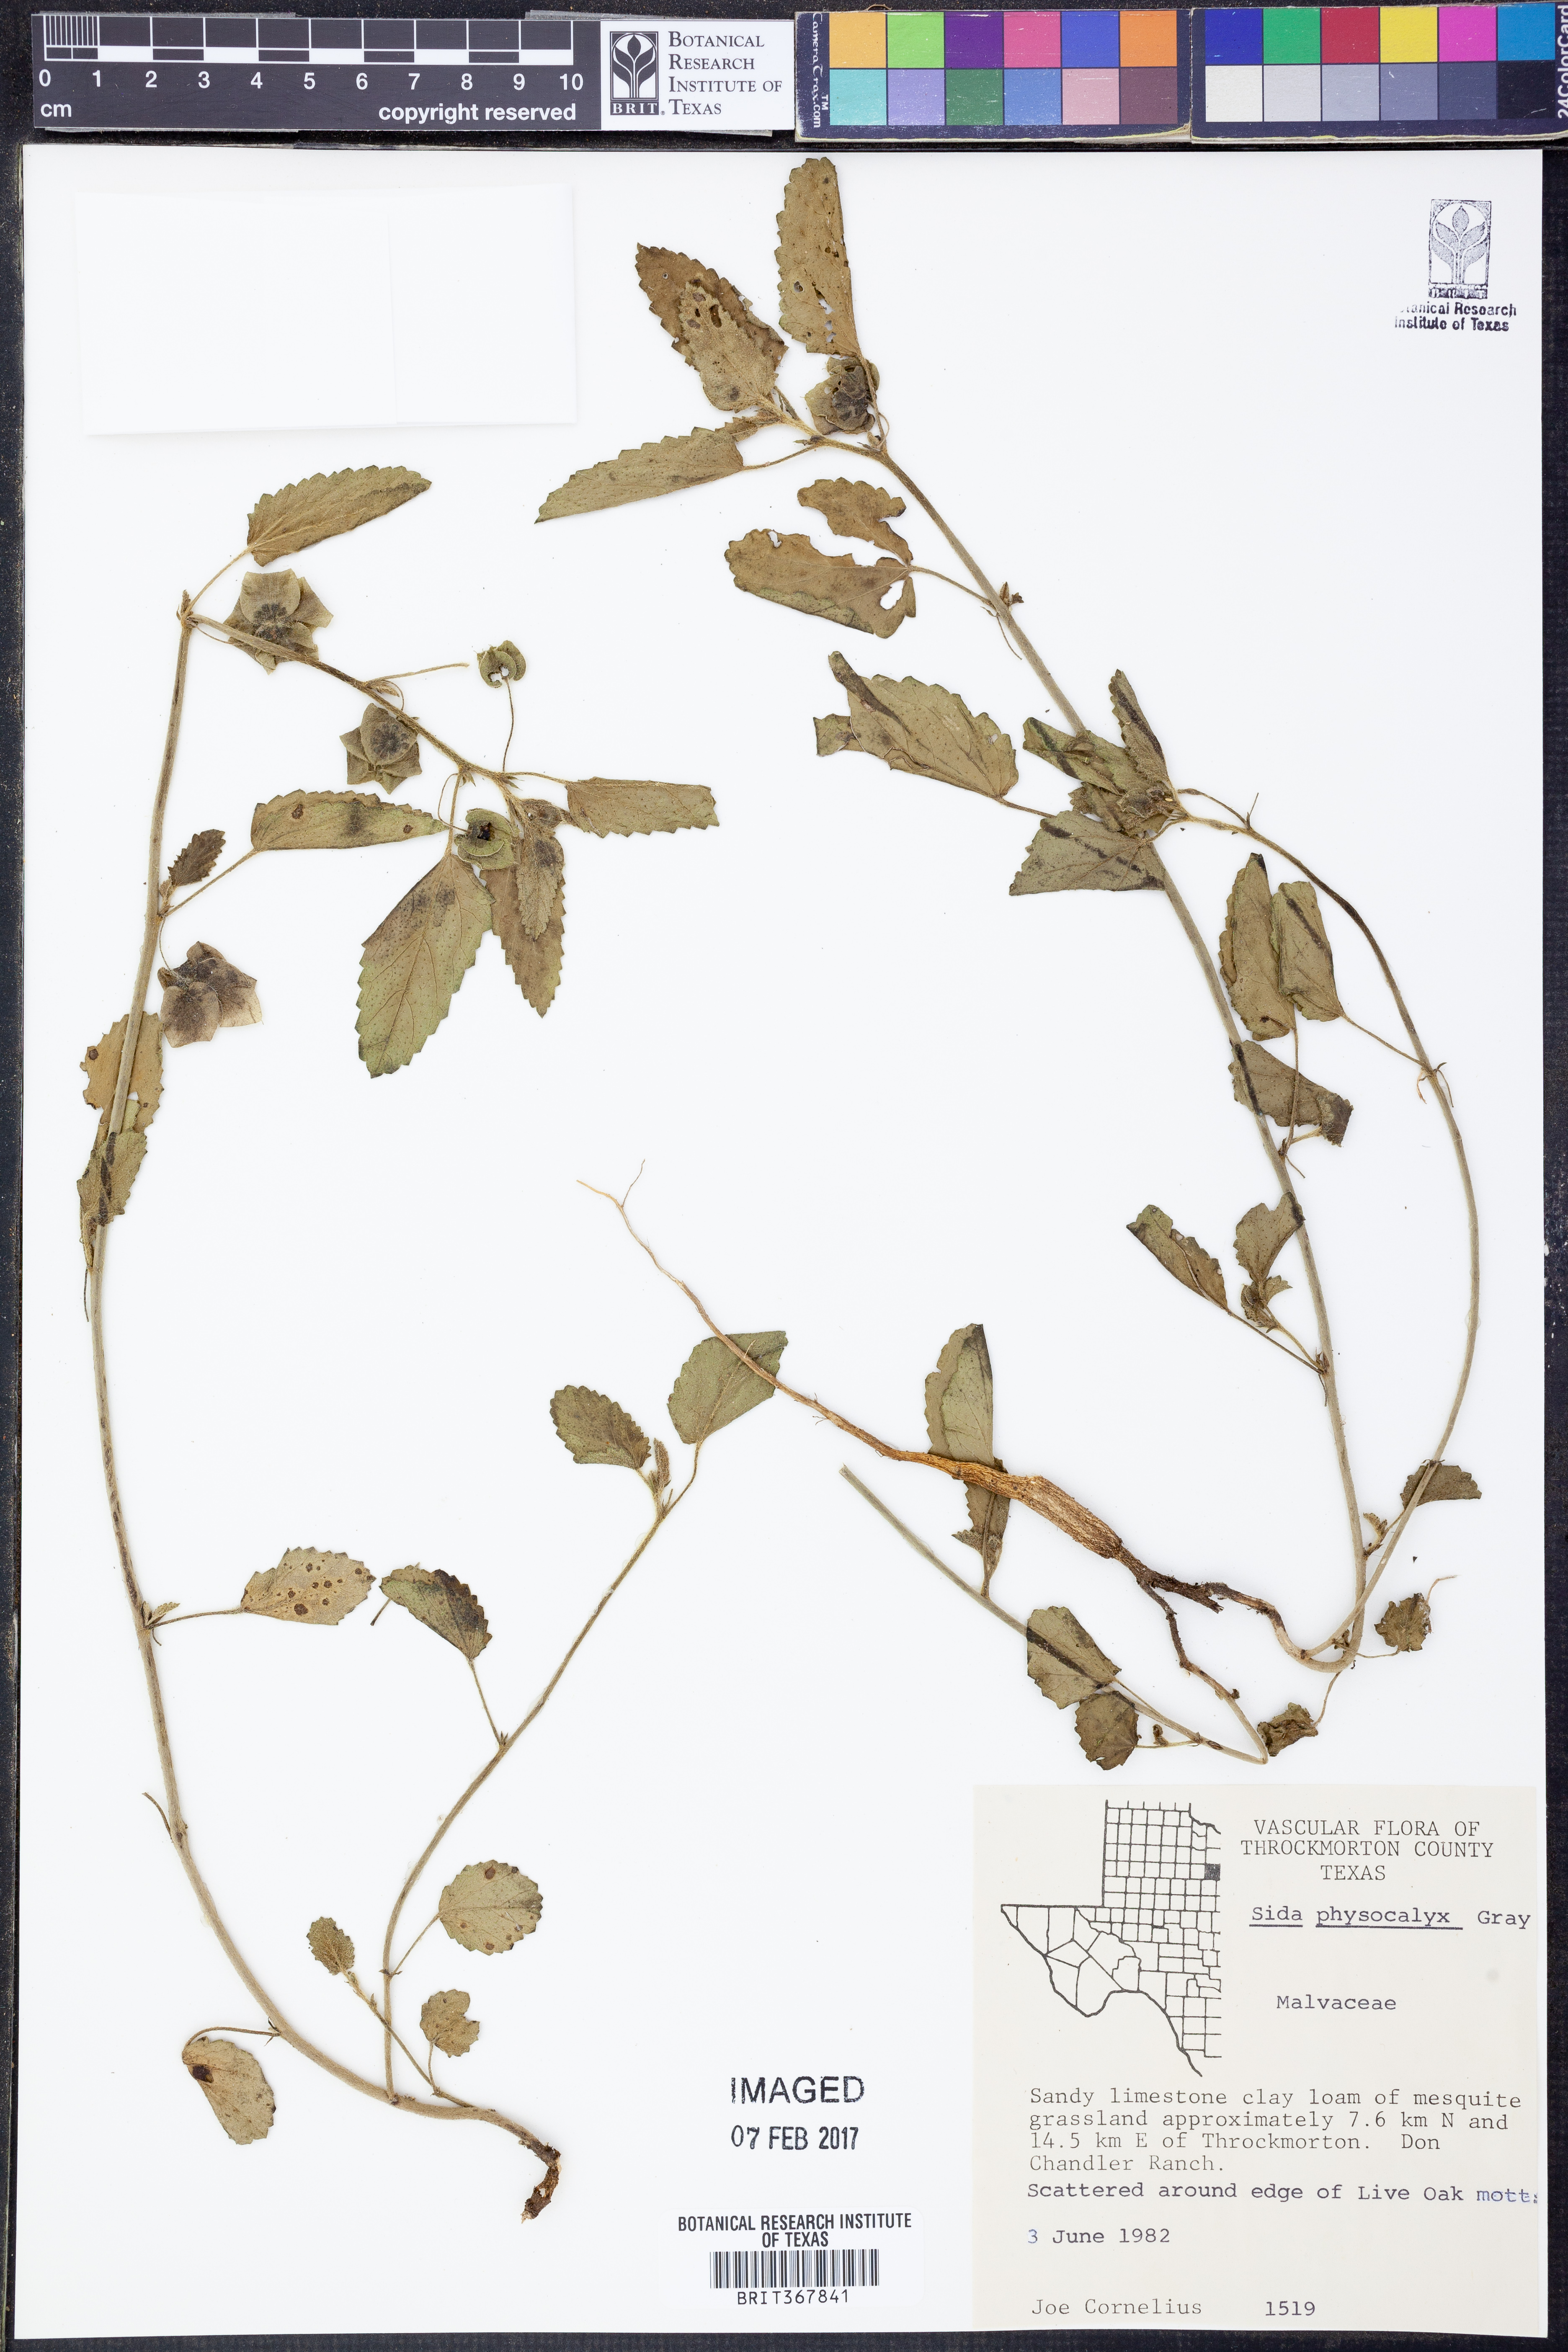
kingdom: Plantae
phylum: Tracheophyta
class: Magnoliopsida
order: Malvales
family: Malvaceae
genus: Rhynchosida
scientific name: Rhynchosida physocalyx
